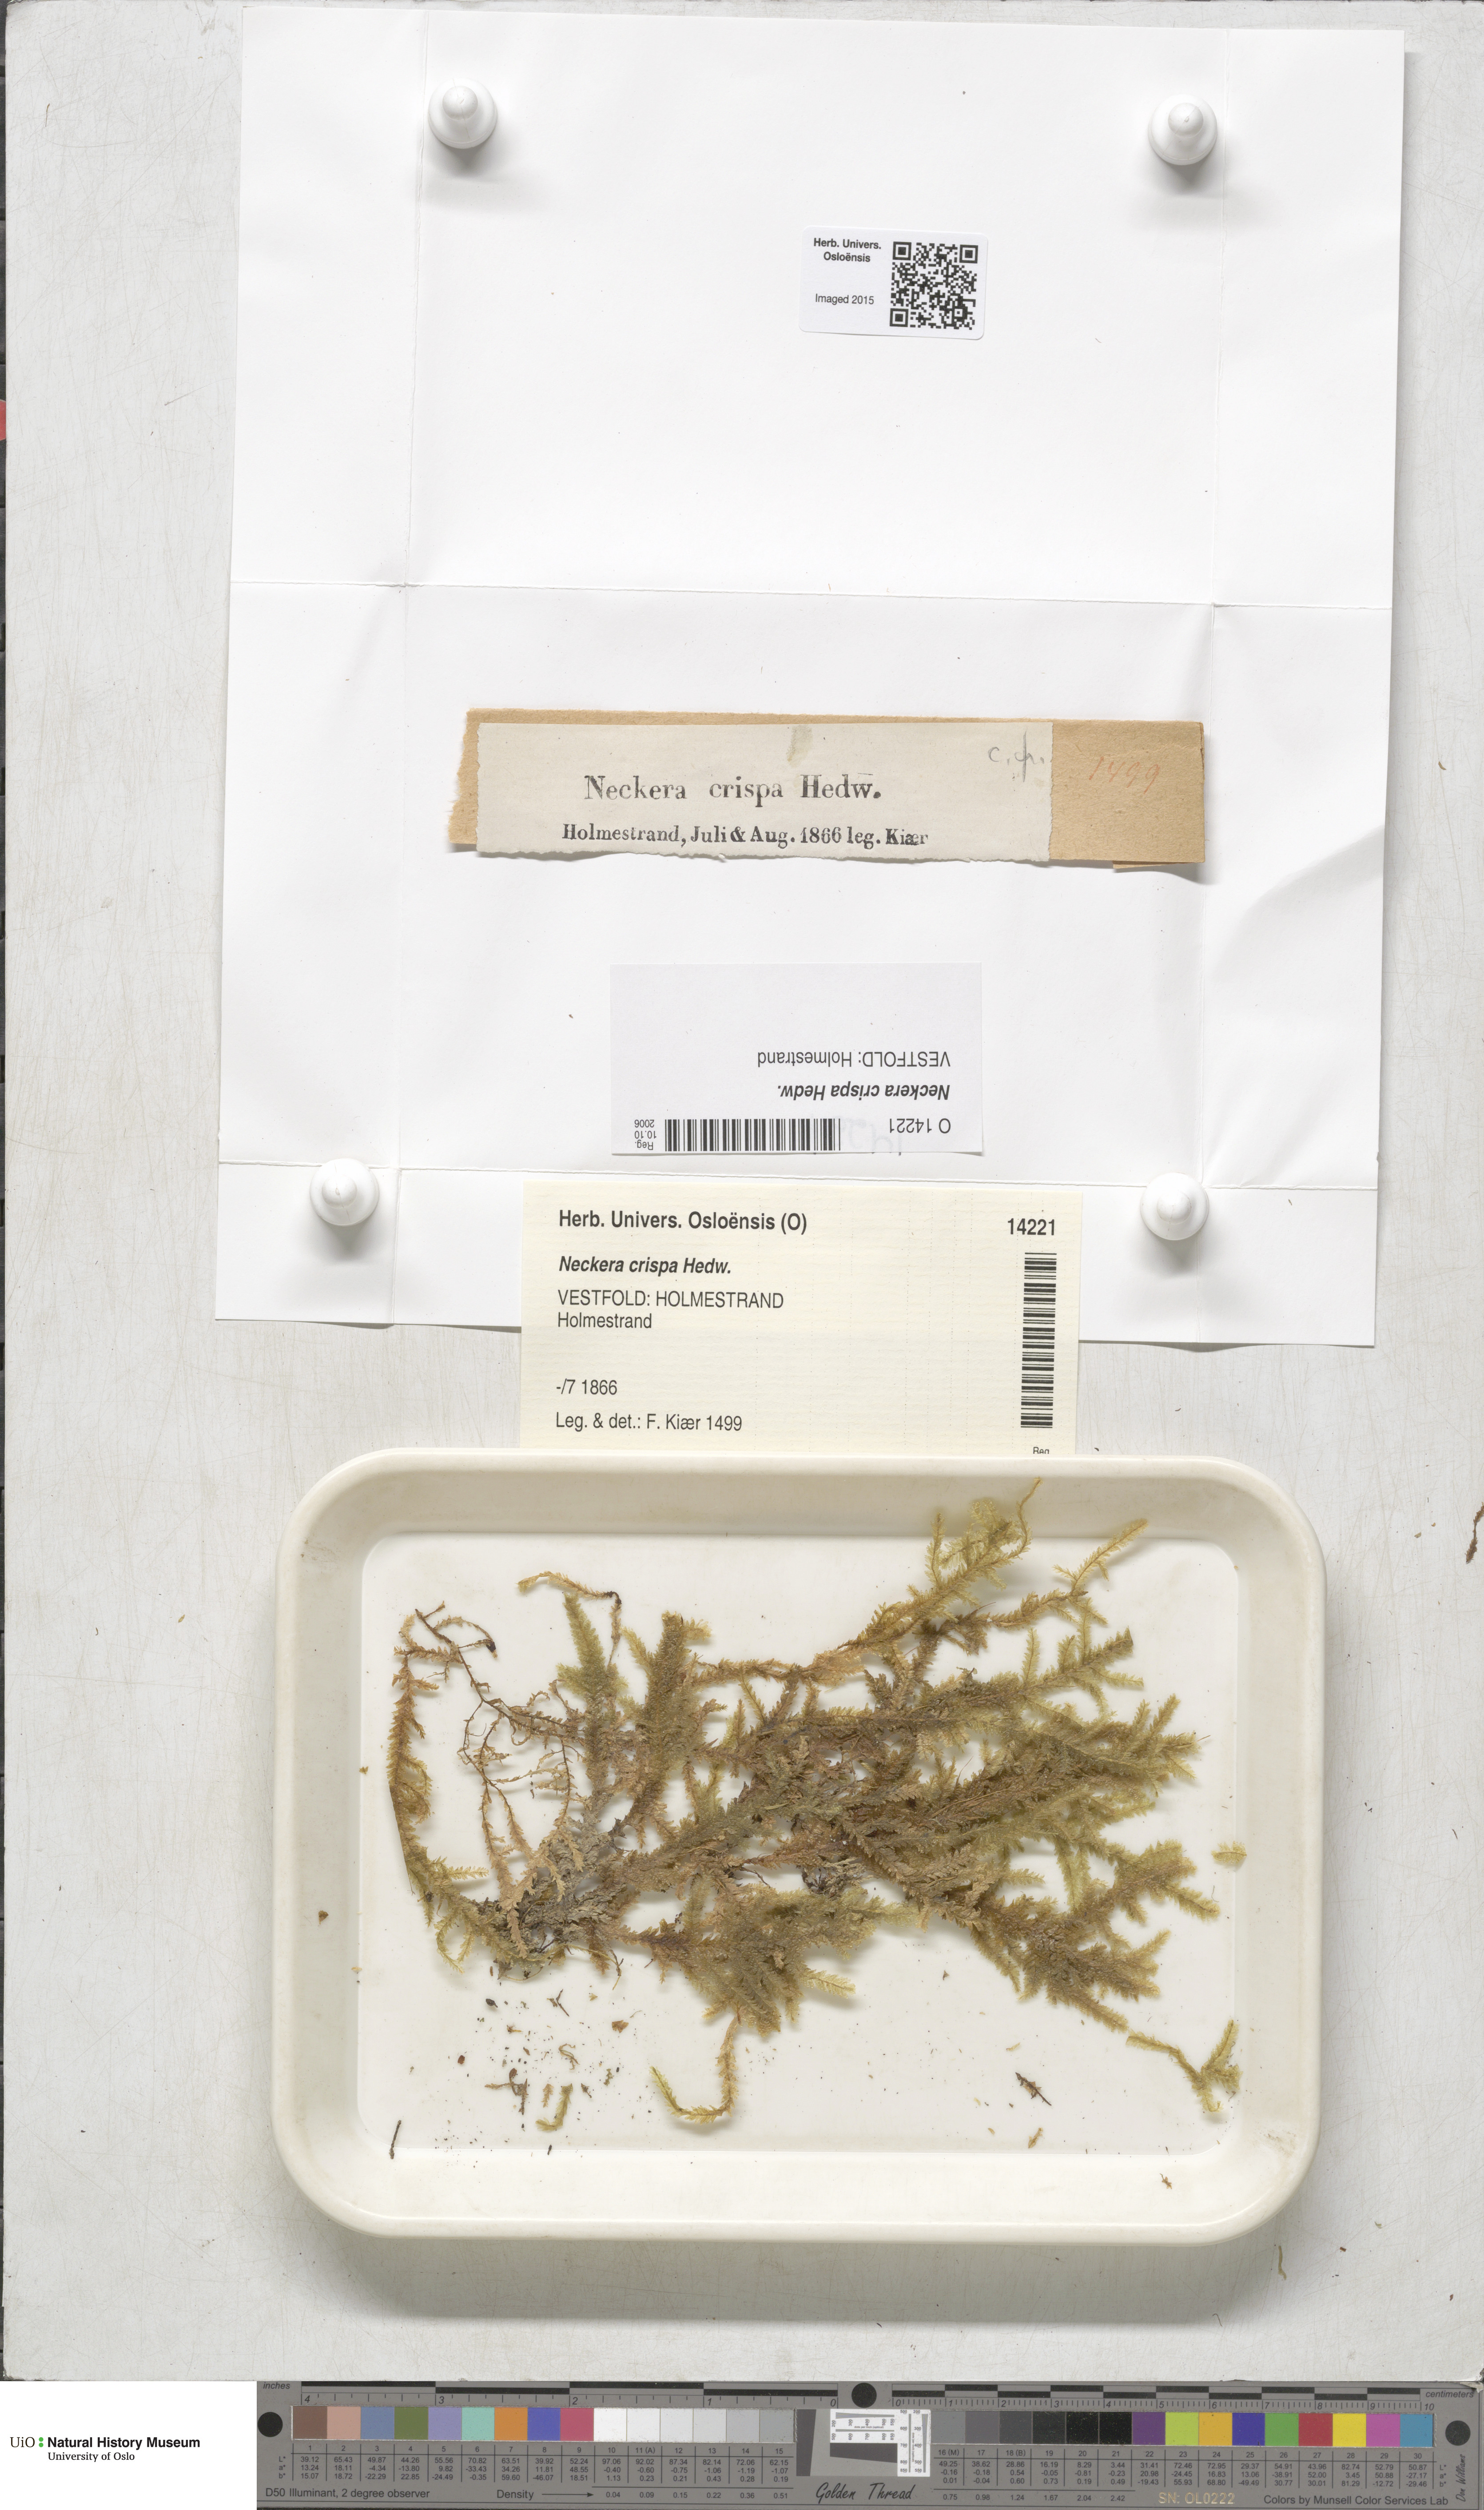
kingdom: Plantae
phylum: Bryophyta
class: Bryopsida
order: Hypnales
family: Neckeraceae
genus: Exsertotheca
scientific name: Exsertotheca crispa
